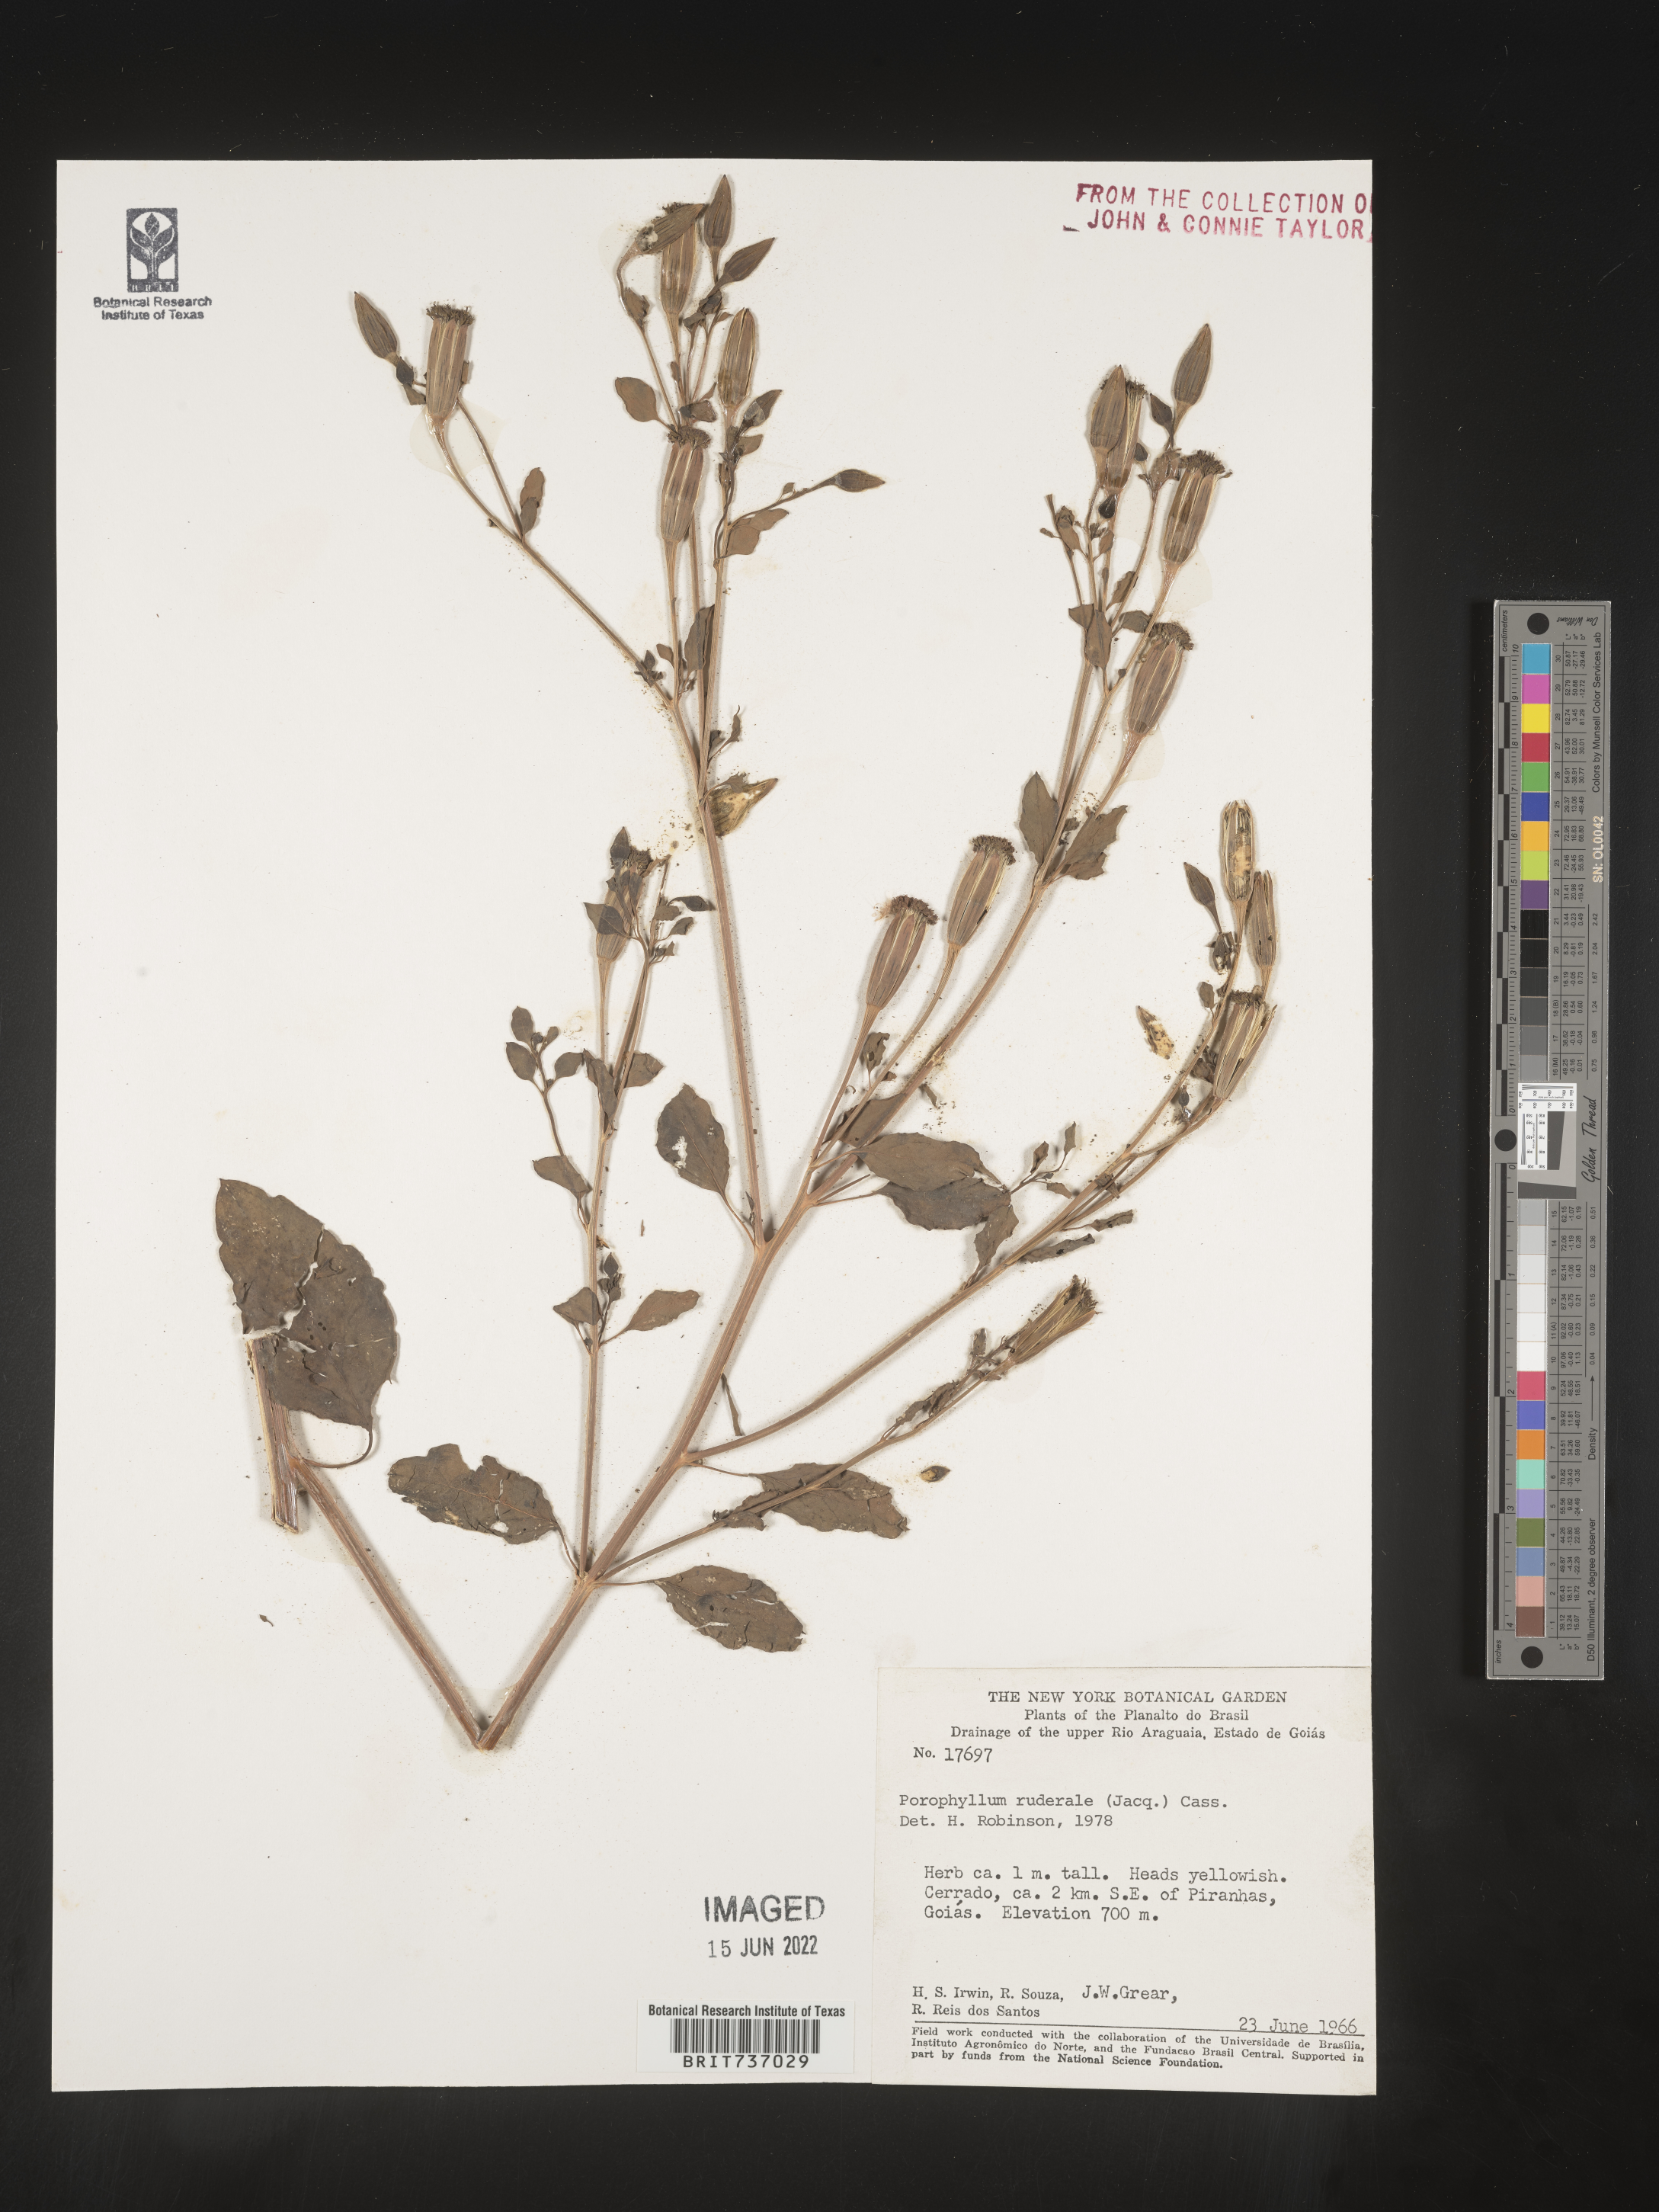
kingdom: Plantae
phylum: Tracheophyta
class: Magnoliopsida
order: Asterales
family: Asteraceae
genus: Porophyllum
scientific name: Porophyllum
